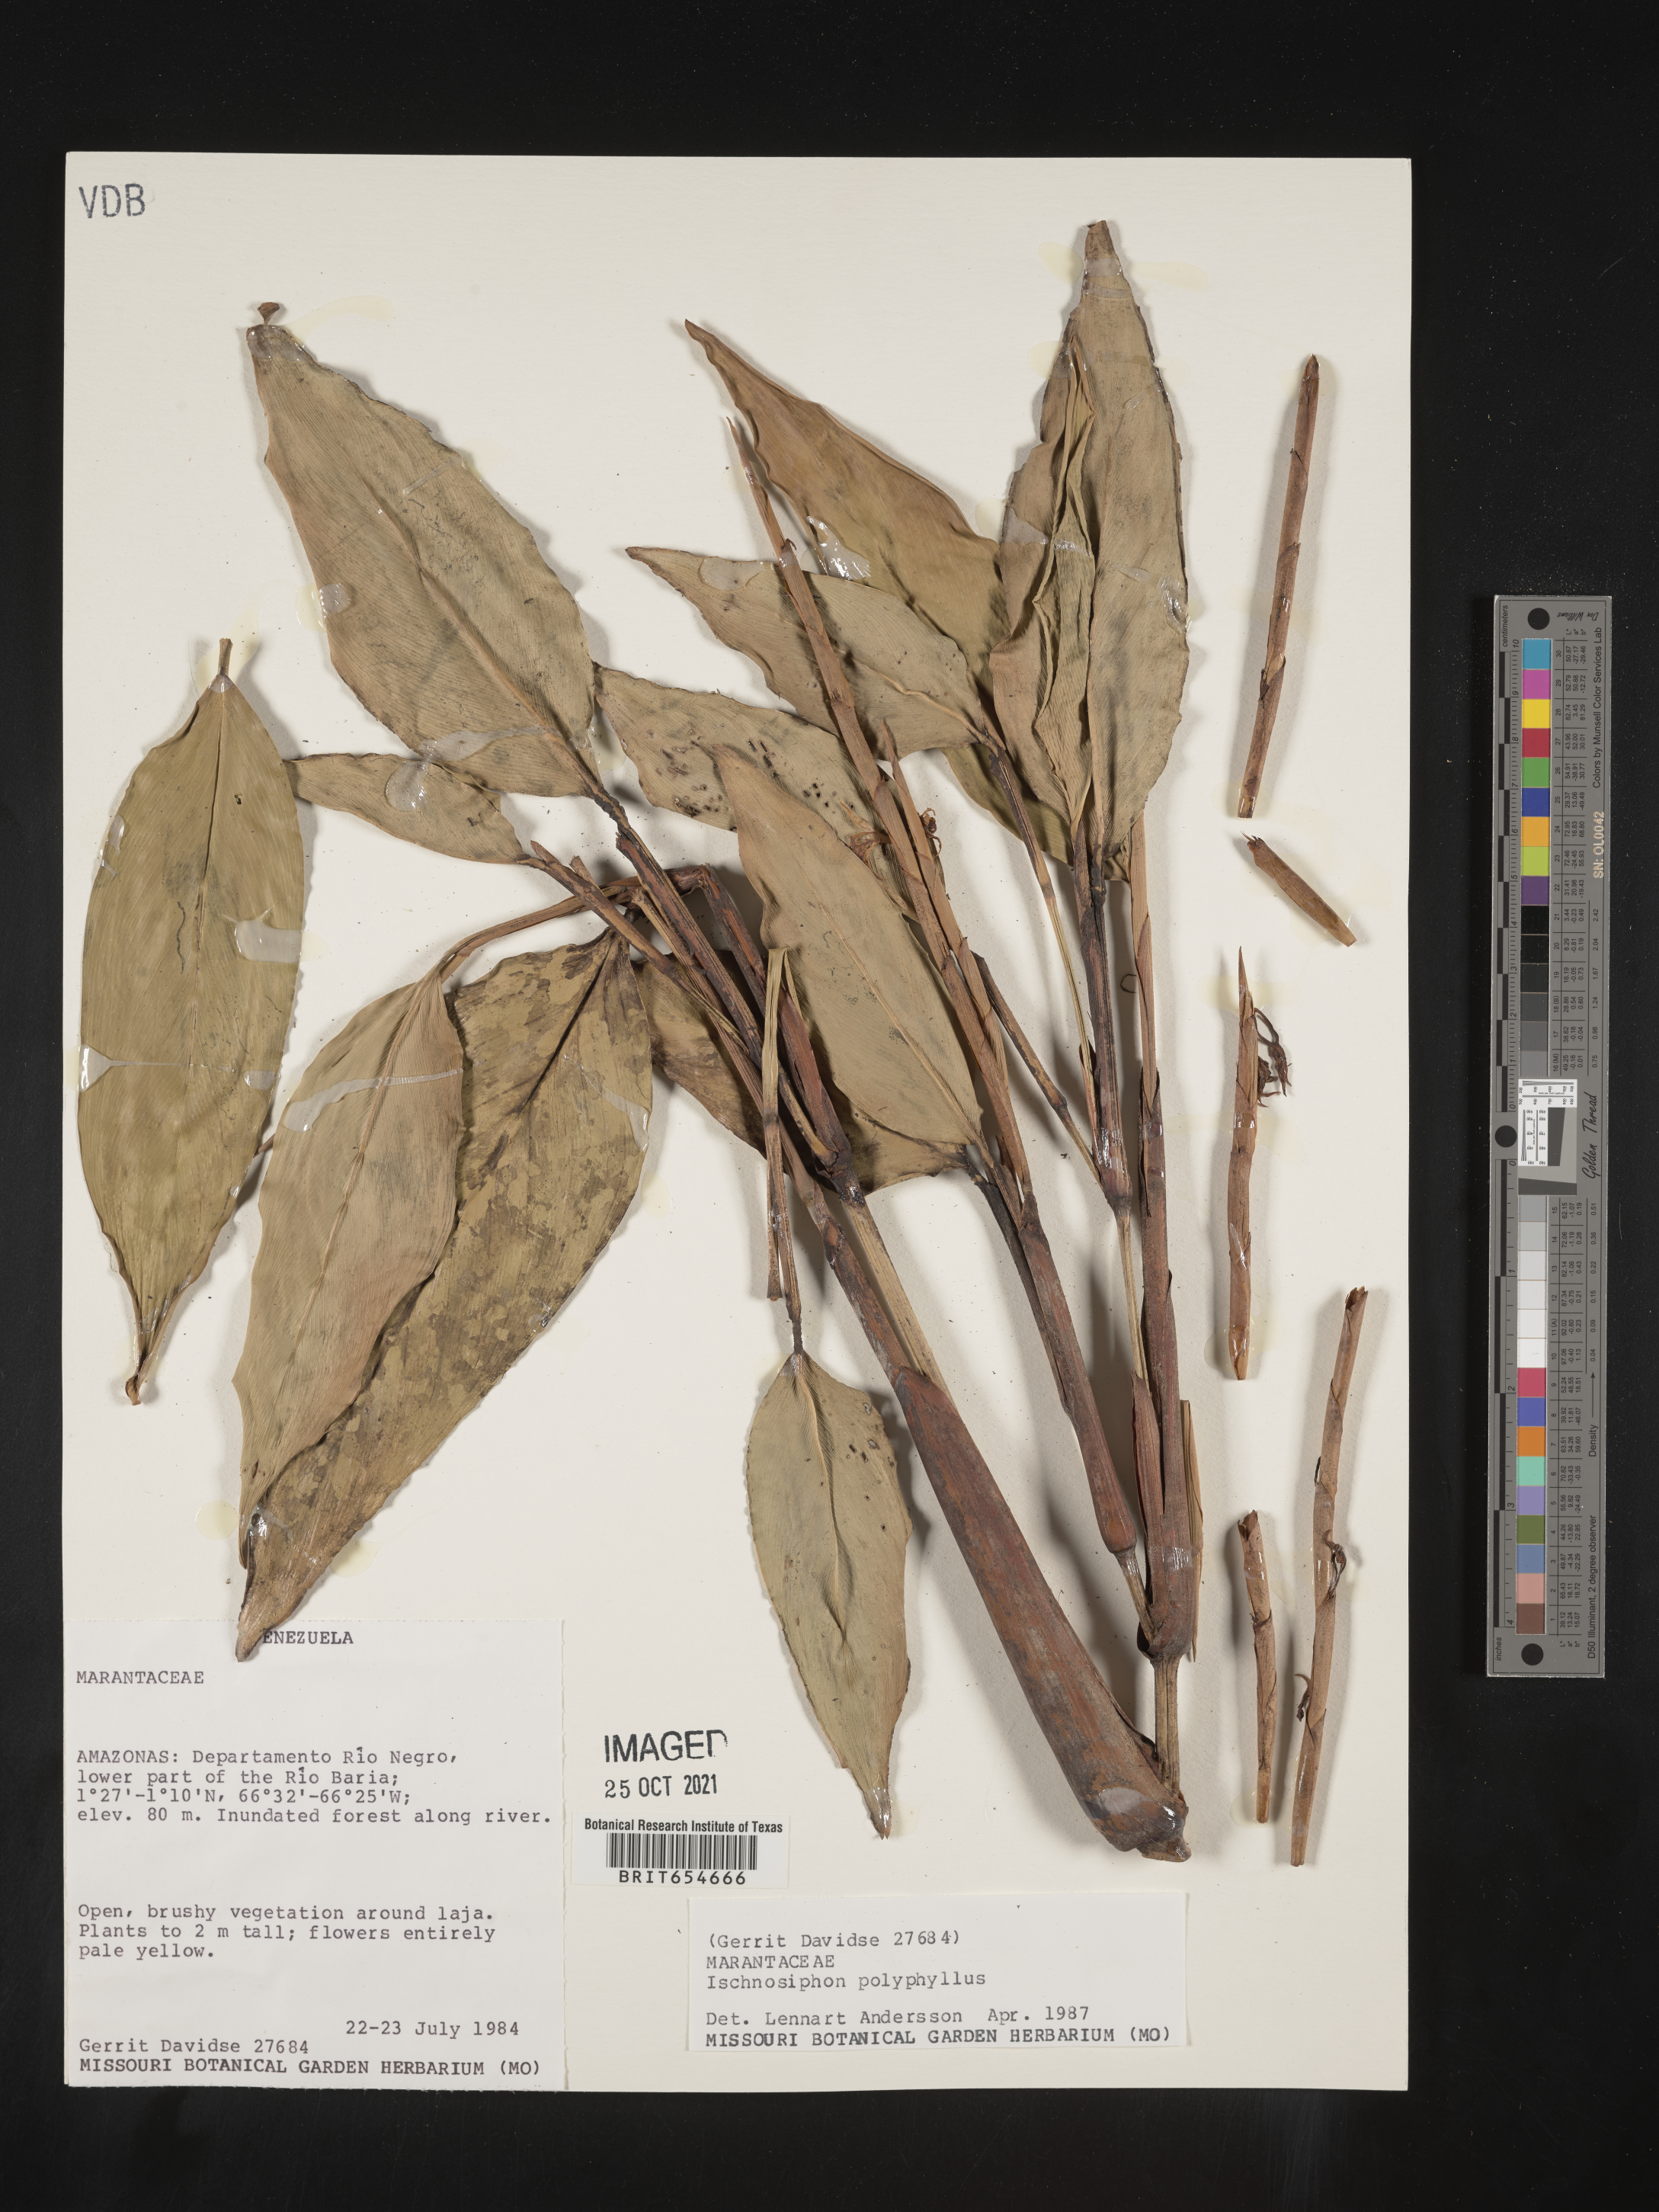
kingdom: Plantae
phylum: Tracheophyta
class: Liliopsida
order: Zingiberales
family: Marantaceae
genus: Ischnosiphon
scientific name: Ischnosiphon
